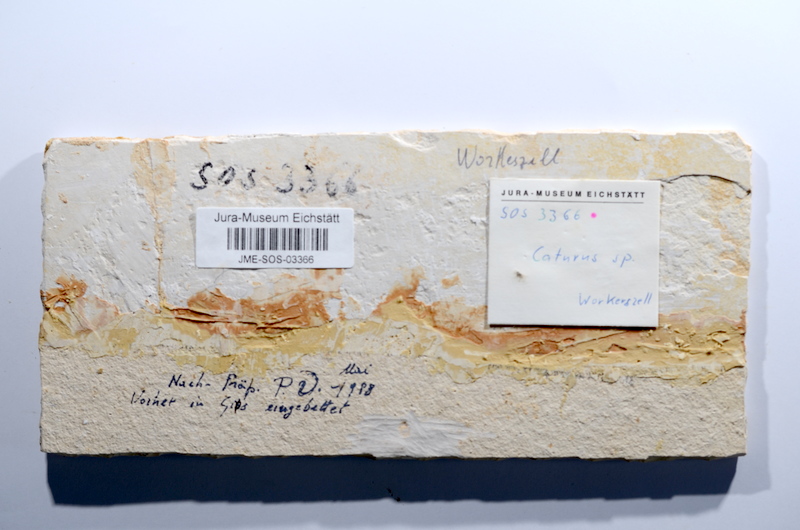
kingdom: Animalia
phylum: Chordata
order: Amiiformes
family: Caturidae
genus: Caturus
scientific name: Caturus
